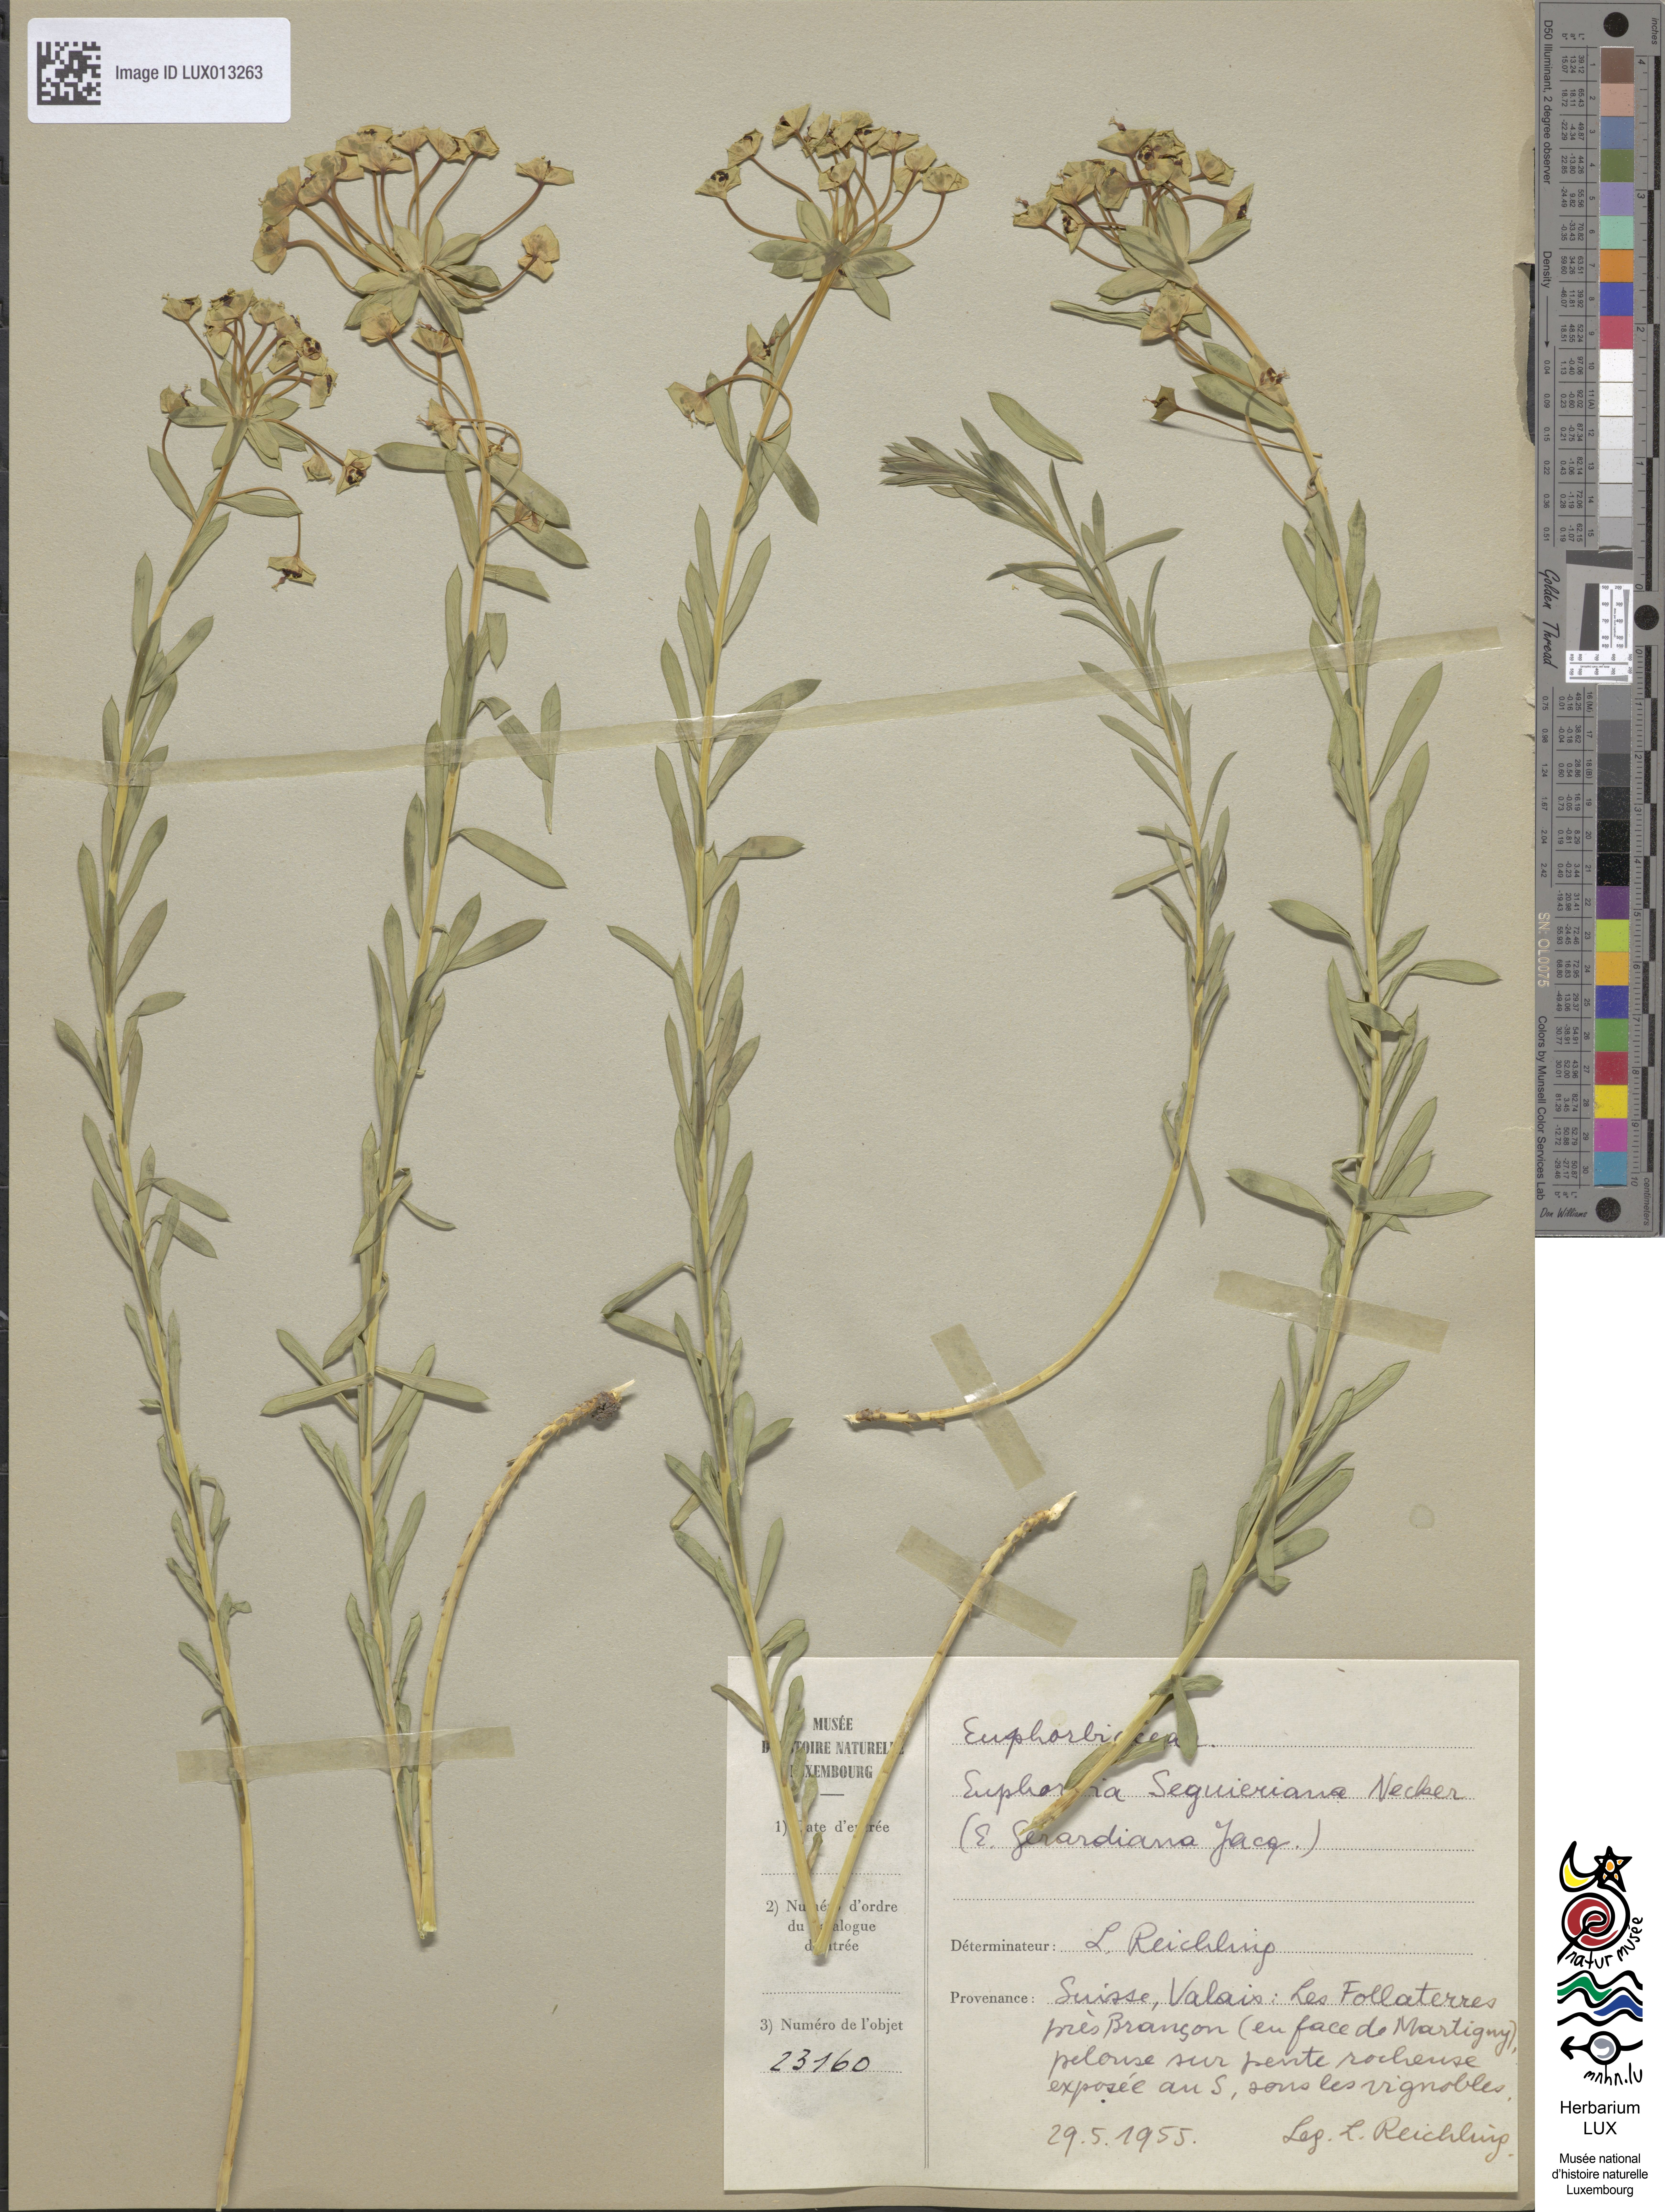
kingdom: Plantae
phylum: Tracheophyta
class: Magnoliopsida
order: Malpighiales
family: Euphorbiaceae
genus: Euphorbia
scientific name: Euphorbia seguieriana
